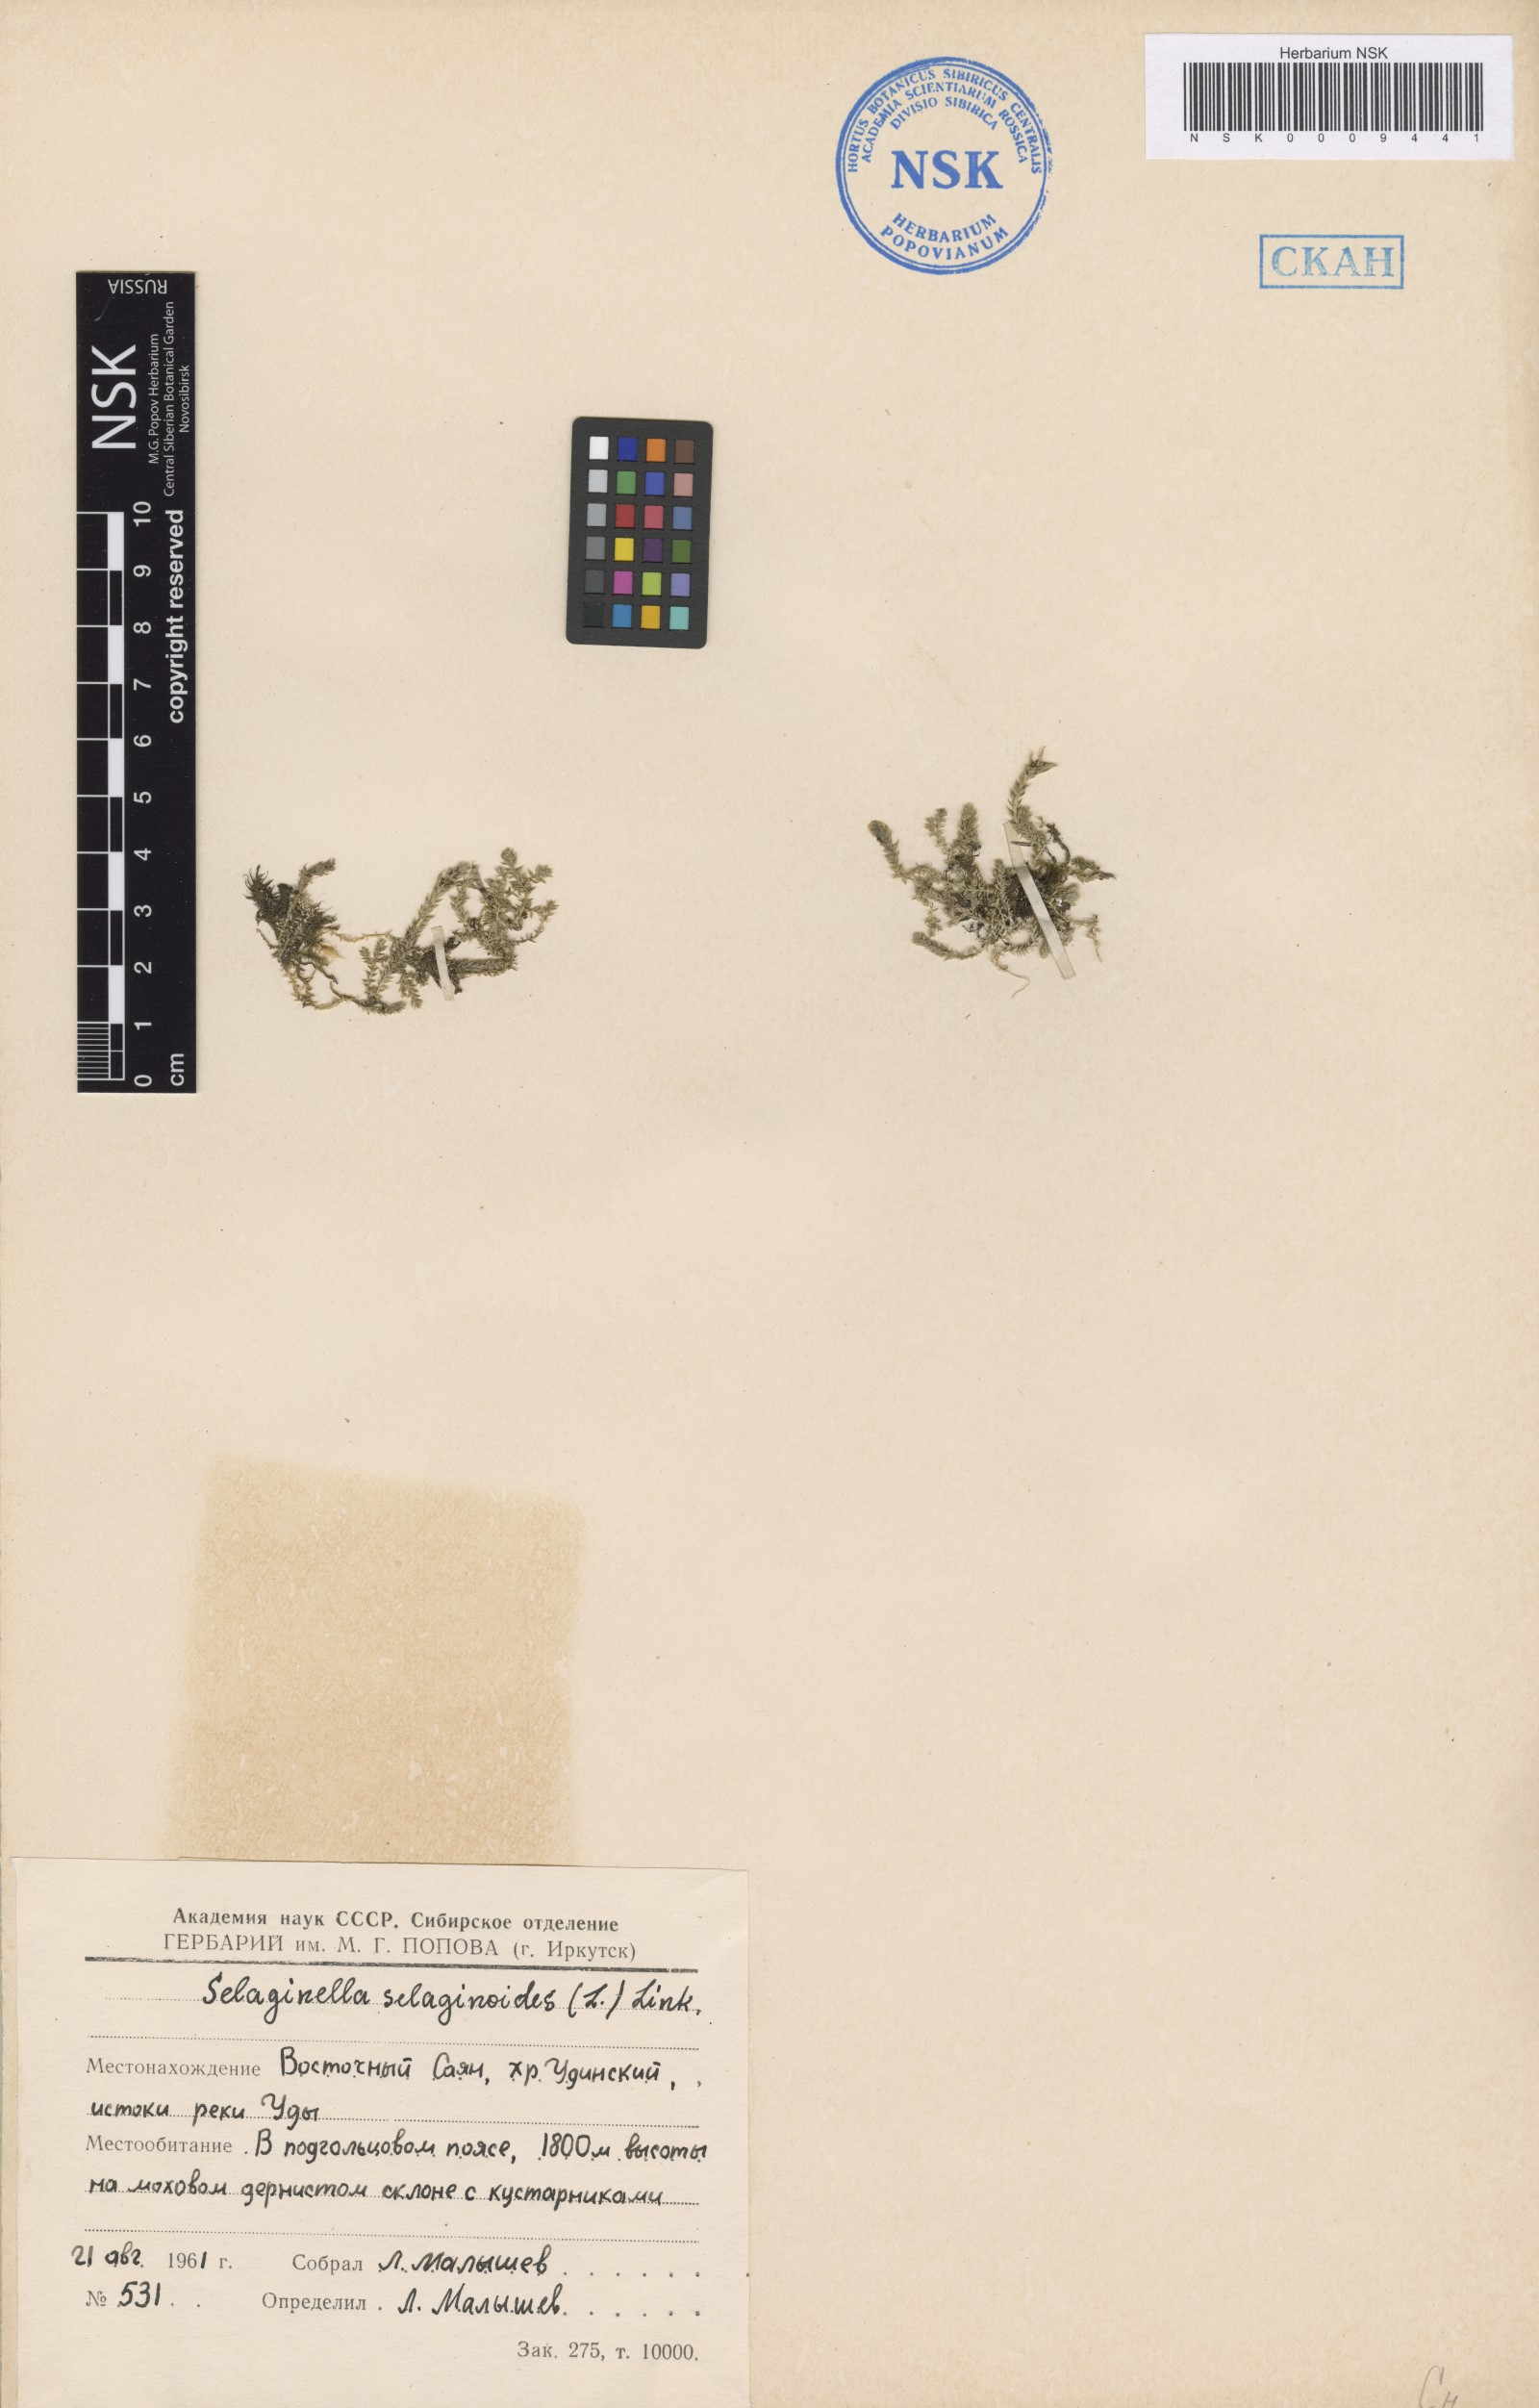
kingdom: Plantae
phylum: Tracheophyta
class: Lycopodiopsida
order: Selaginellales
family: Selaginellaceae
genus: Selaginella
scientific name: Selaginella selaginoides
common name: Prickly mountain-moss
